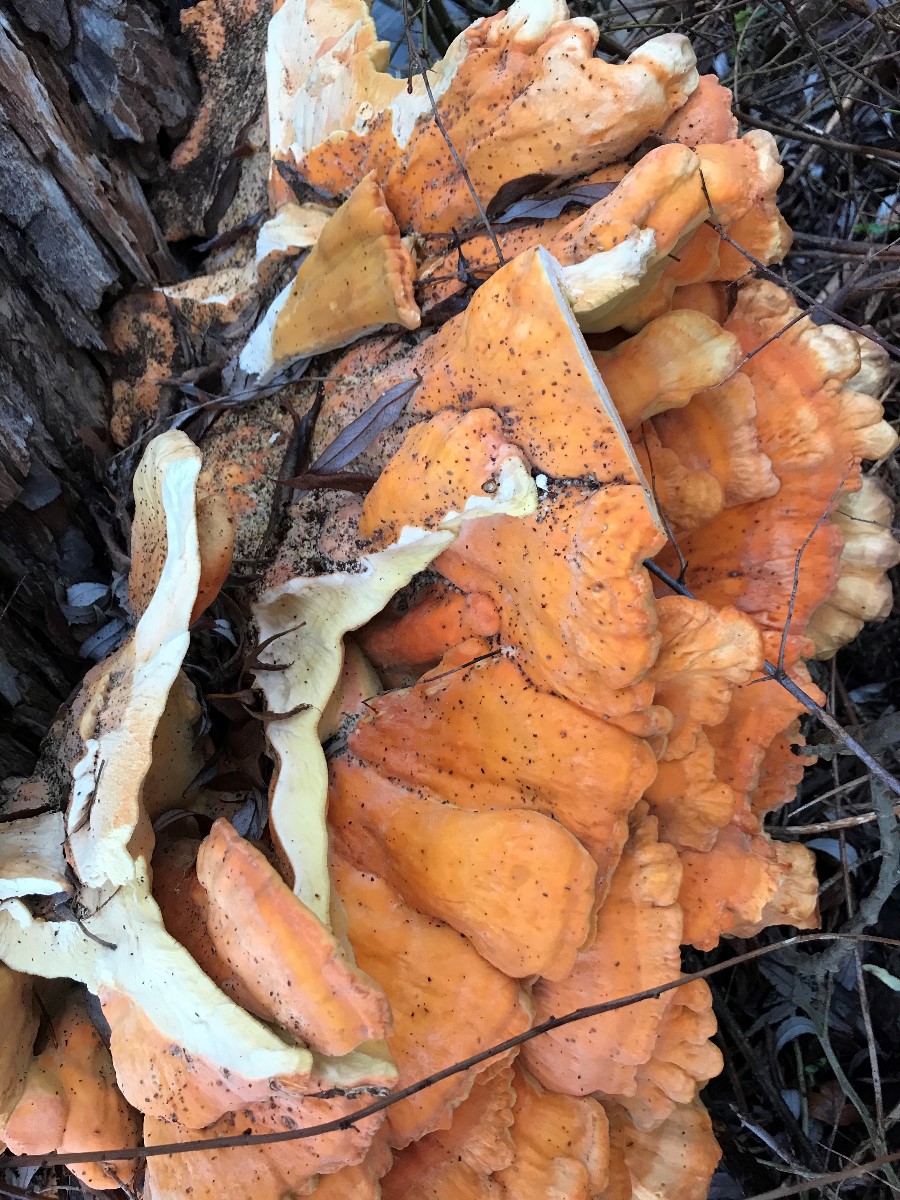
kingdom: Fungi
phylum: Basidiomycota
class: Agaricomycetes
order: Polyporales
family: Laetiporaceae
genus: Laetiporus
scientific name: Laetiporus sulphureus
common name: svovlporesvamp
